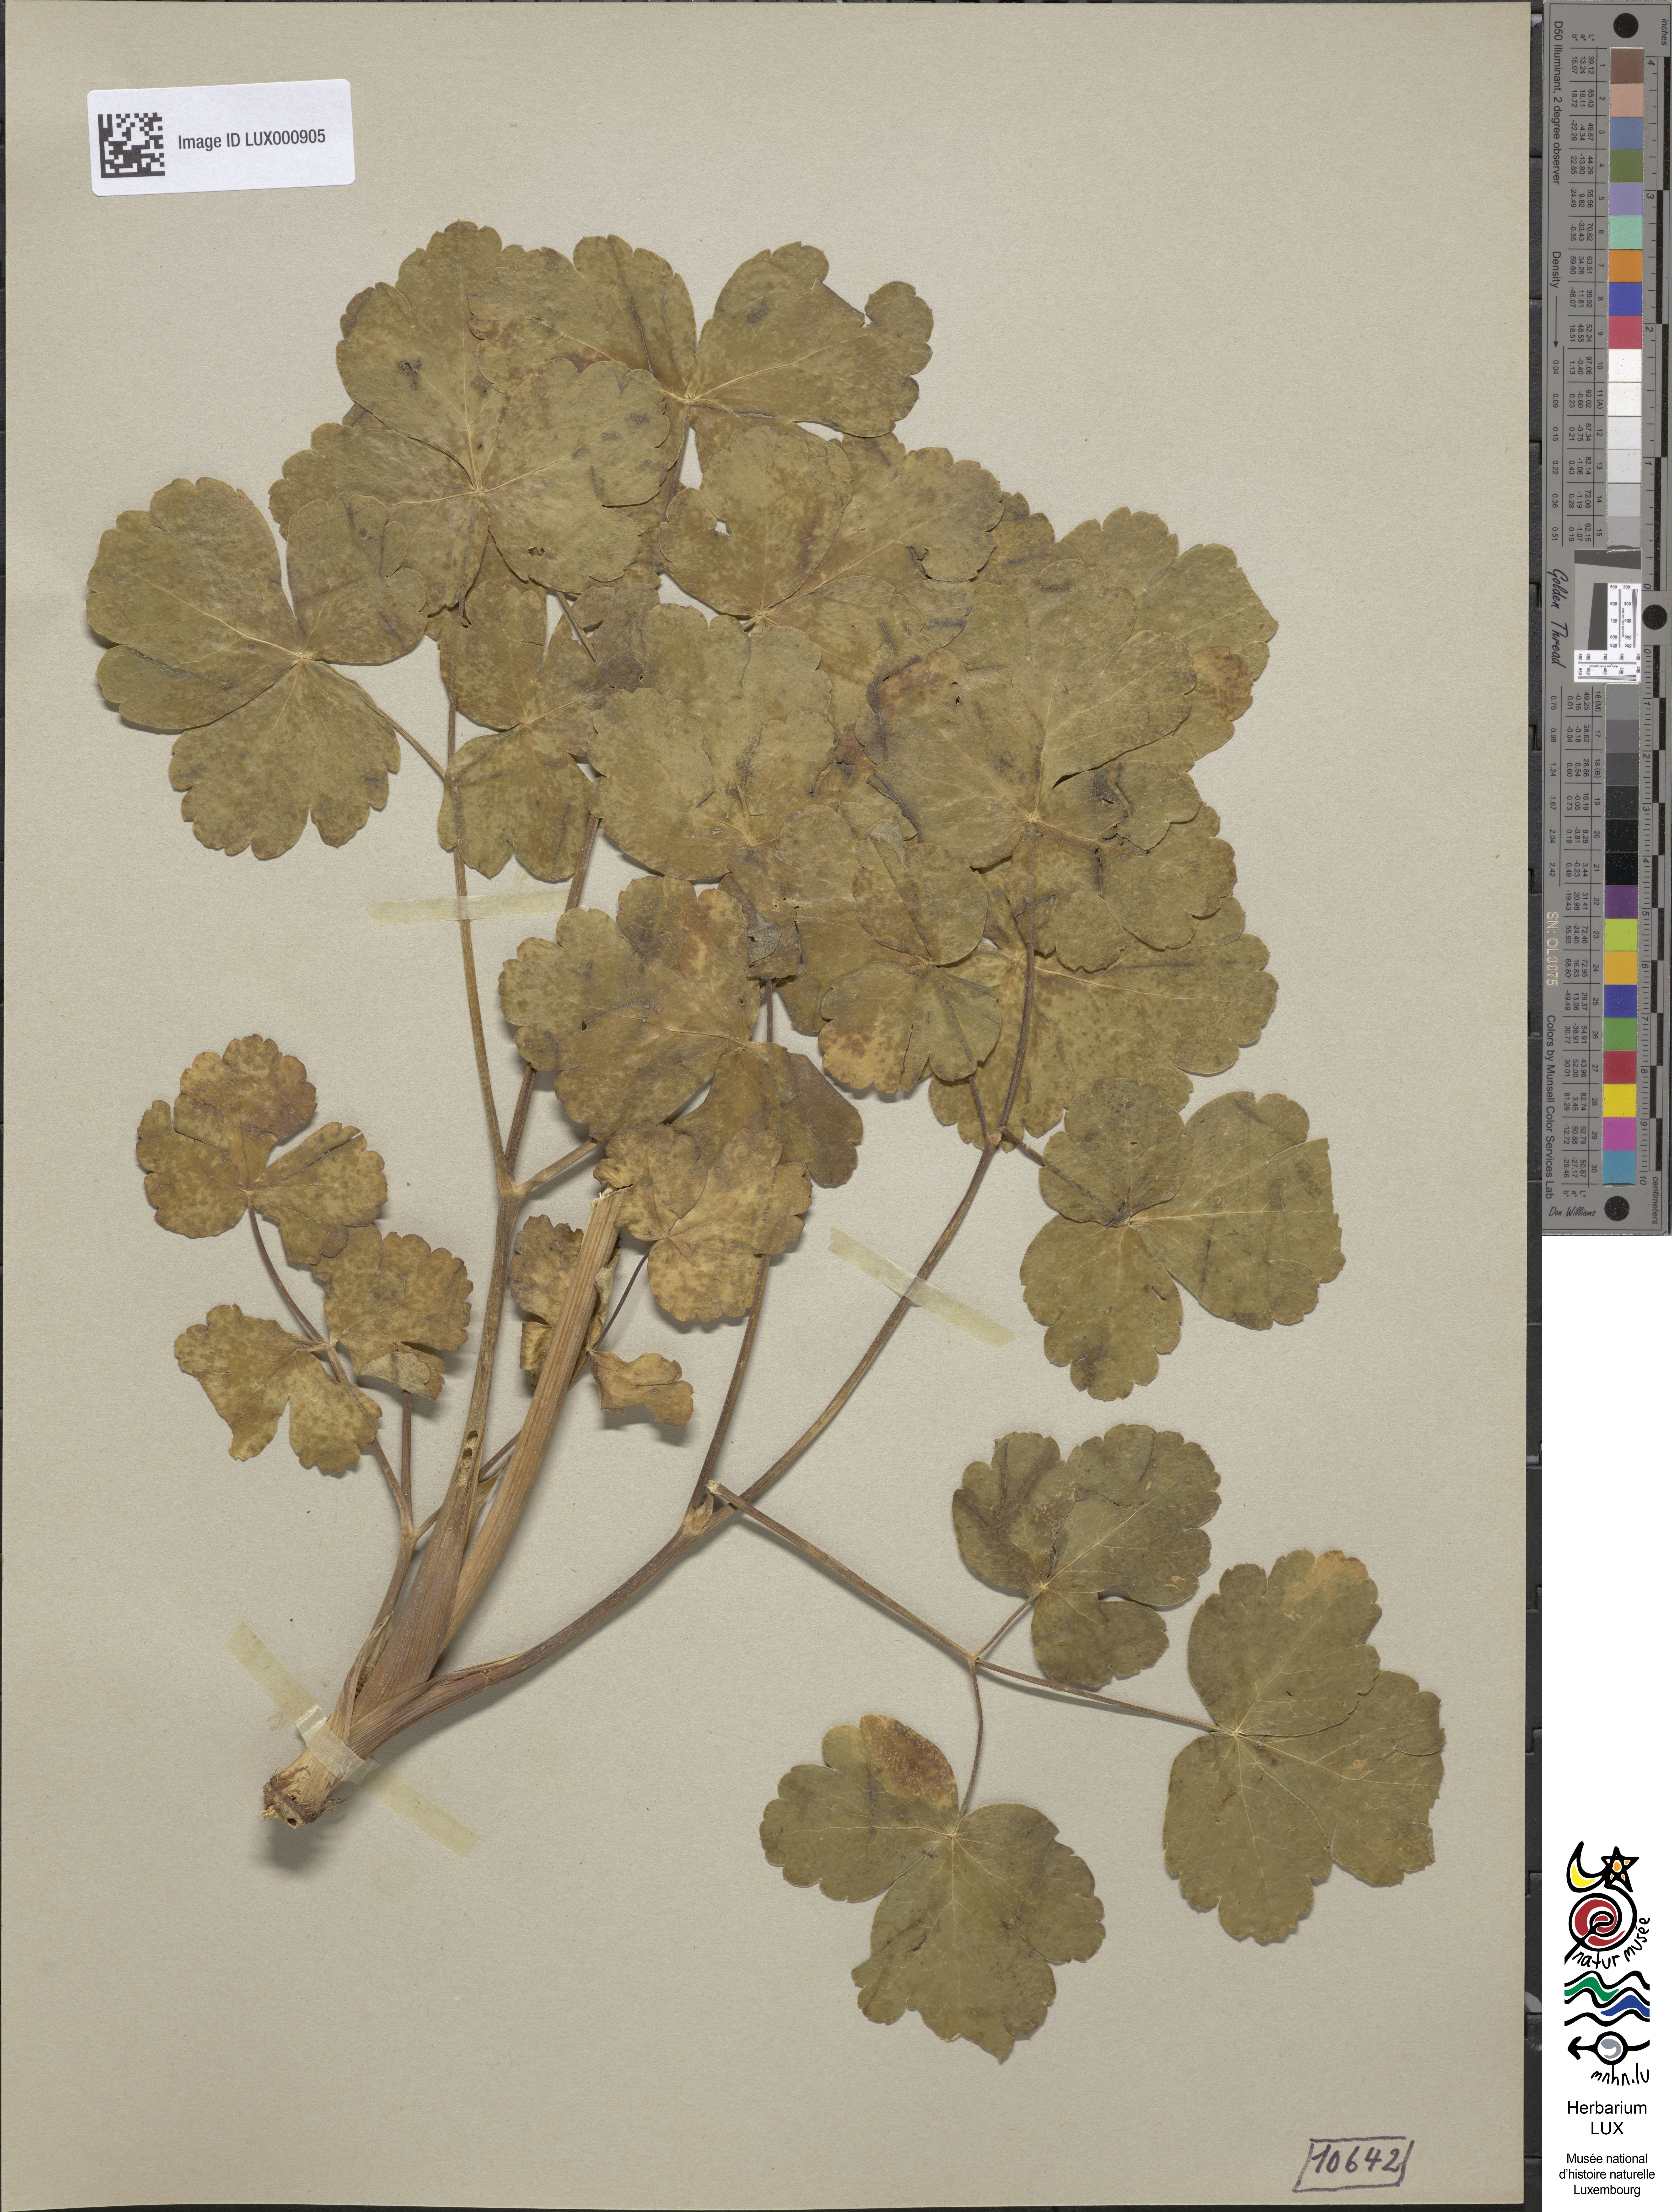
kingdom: Plantae
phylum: Tracheophyta
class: Magnoliopsida
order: Apiales
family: Apiaceae
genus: Laser
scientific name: Laser trilobum
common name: Laser
